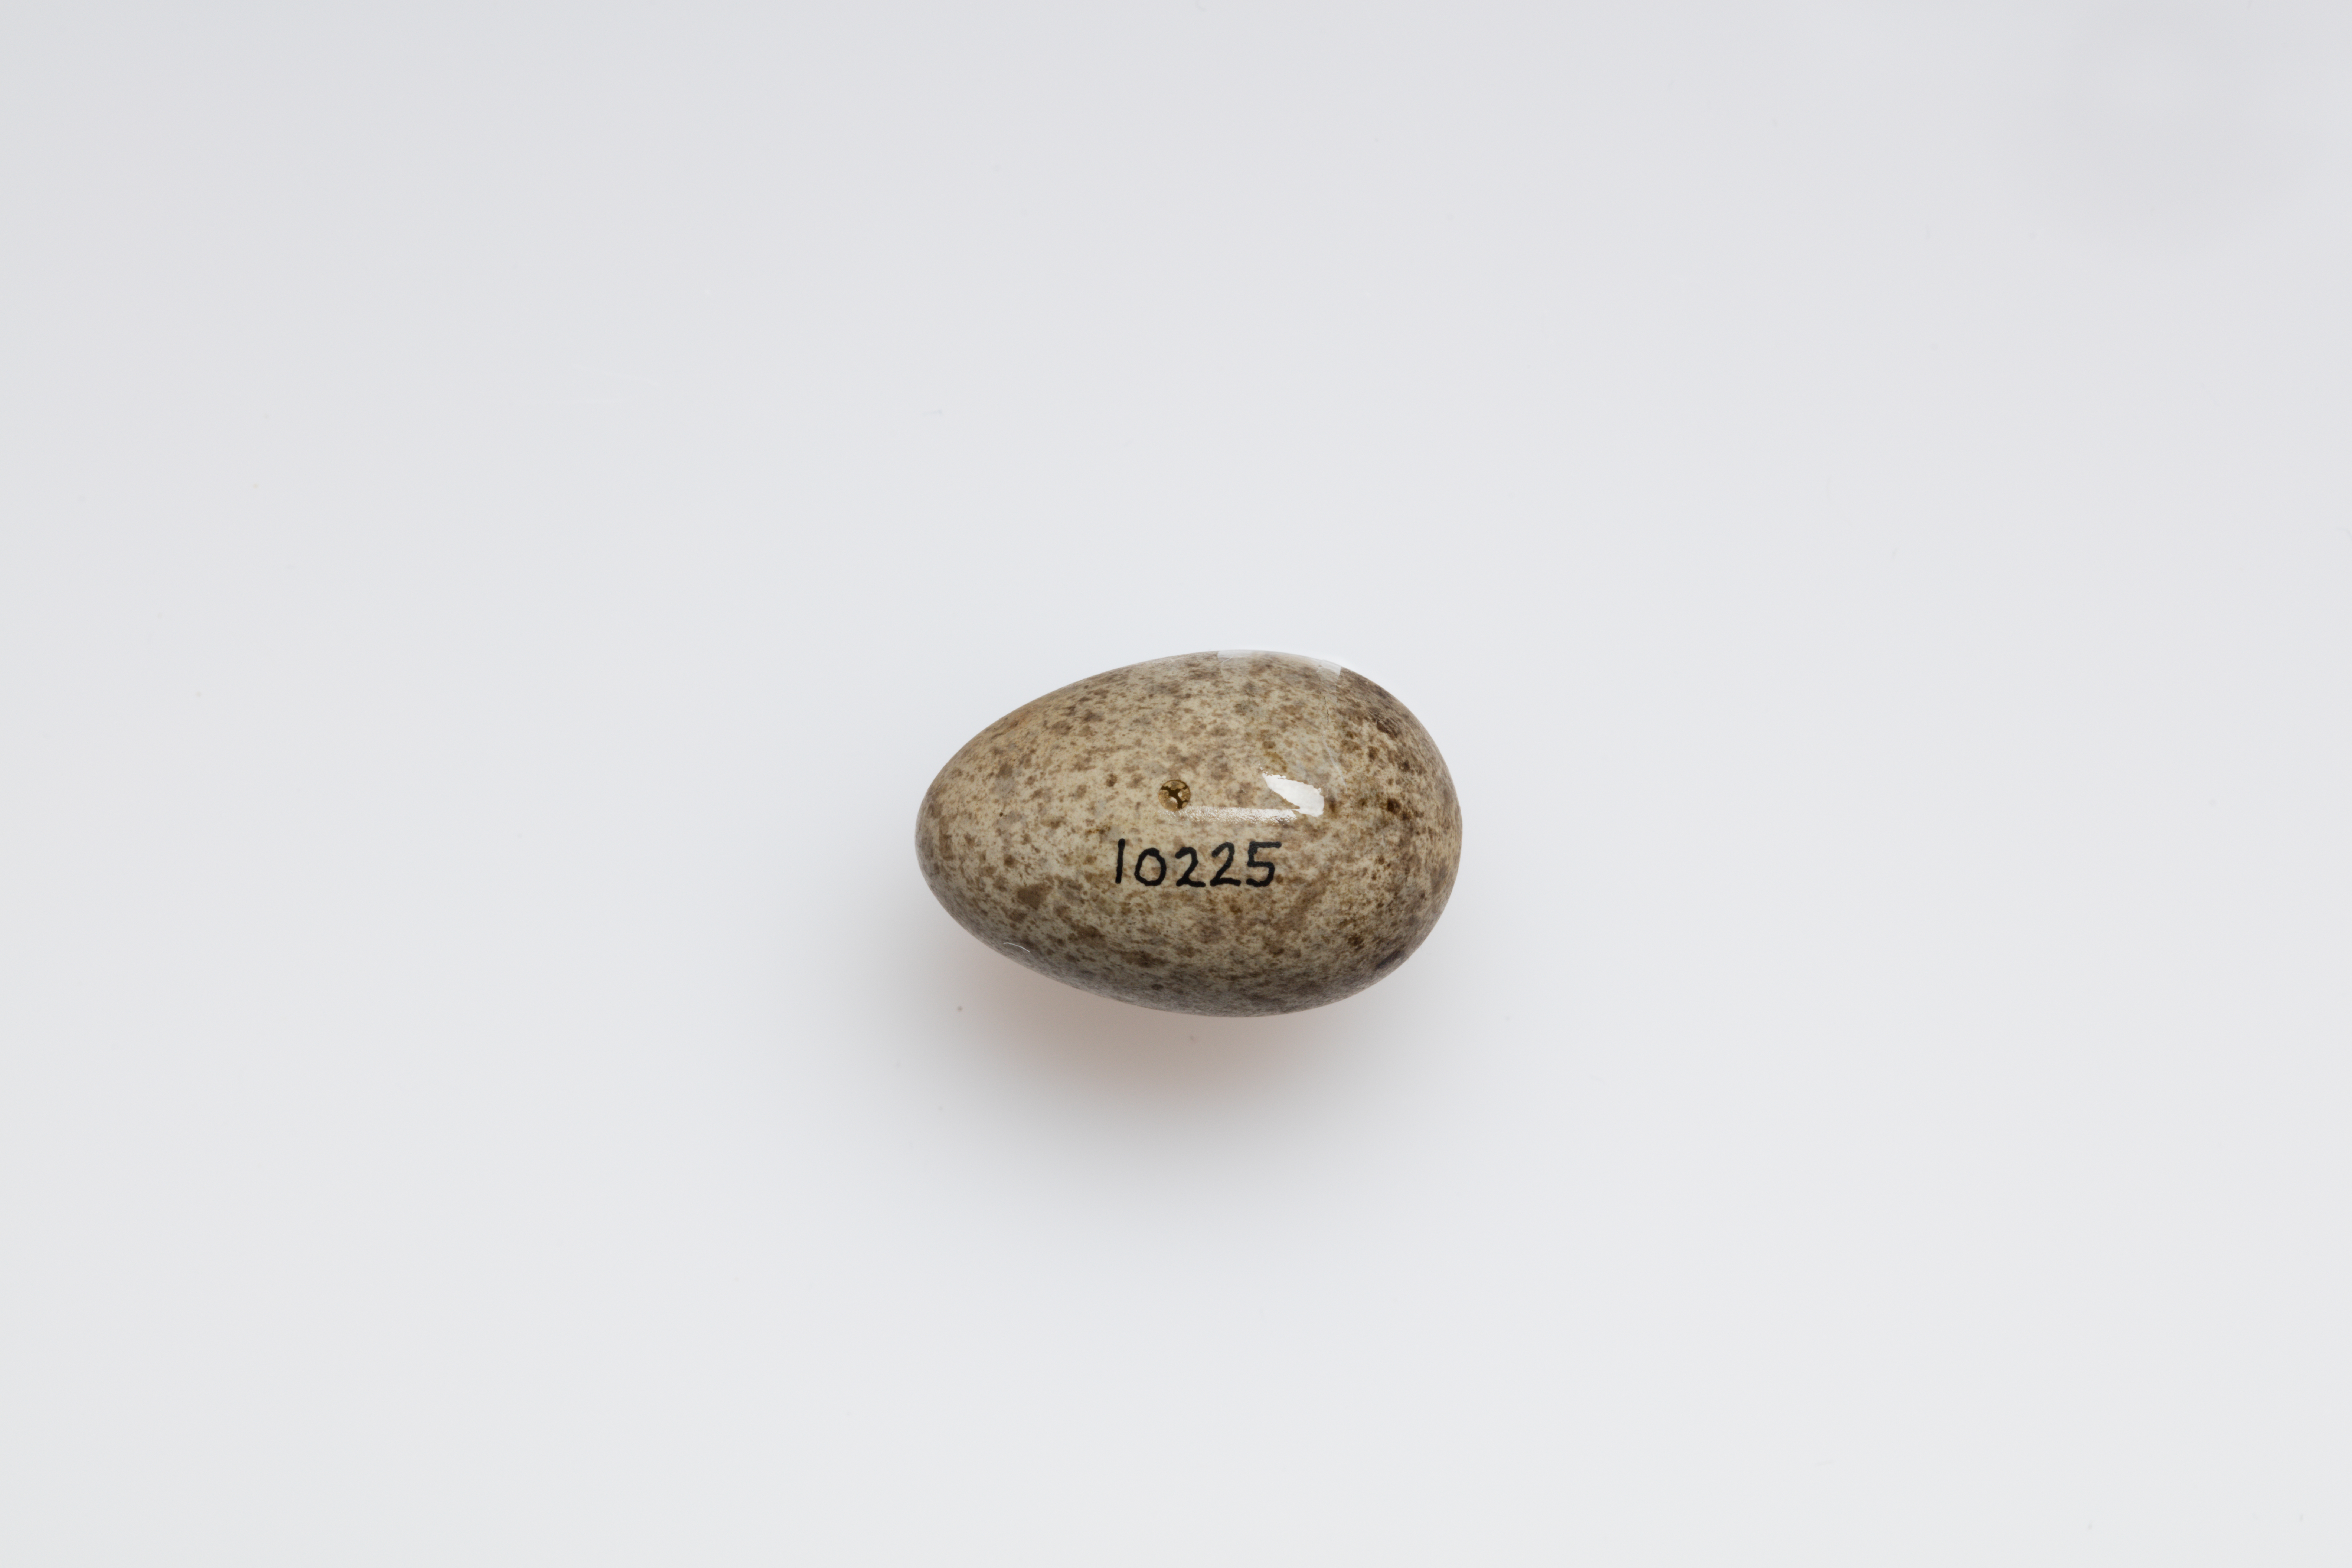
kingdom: Animalia
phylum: Chordata
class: Aves
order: Passeriformes
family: Motacillidae
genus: Anthus
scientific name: Anthus spinoletta
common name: Water pipit
